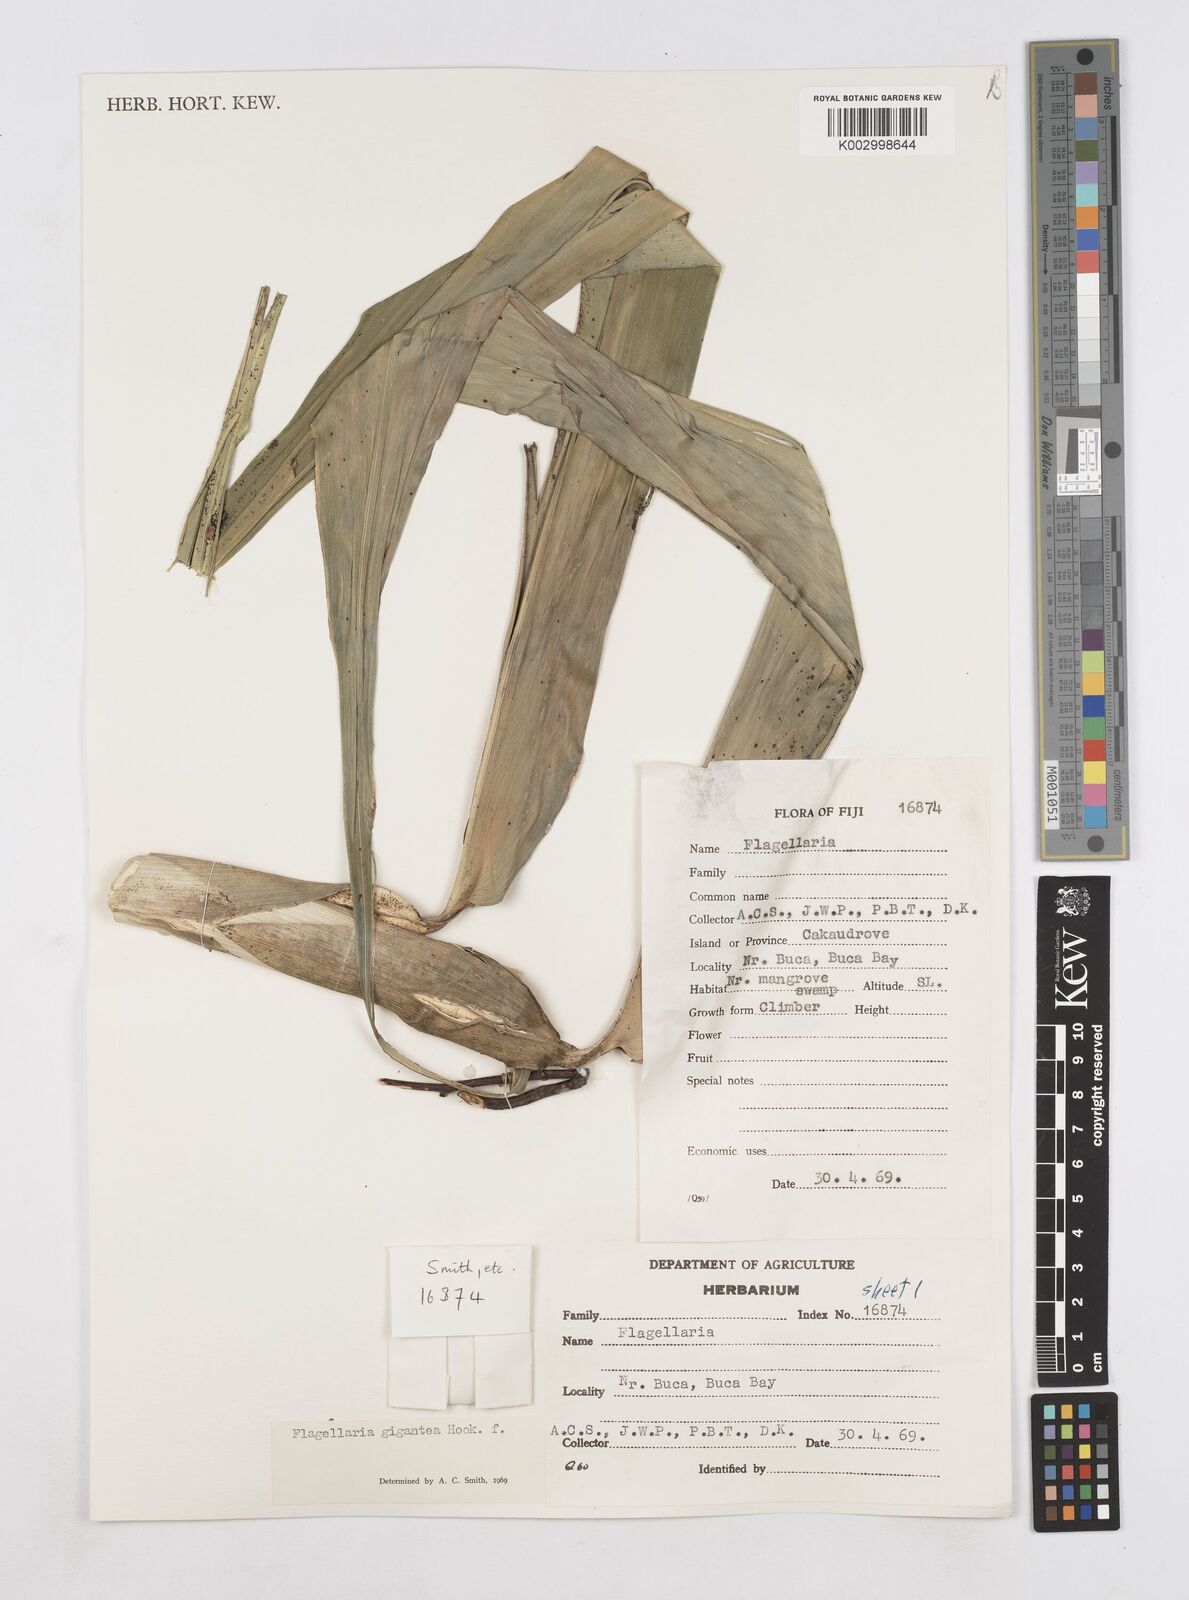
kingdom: Plantae
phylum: Tracheophyta
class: Liliopsida
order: Poales
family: Flagellariaceae
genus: Flagellaria
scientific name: Flagellaria gigantea
